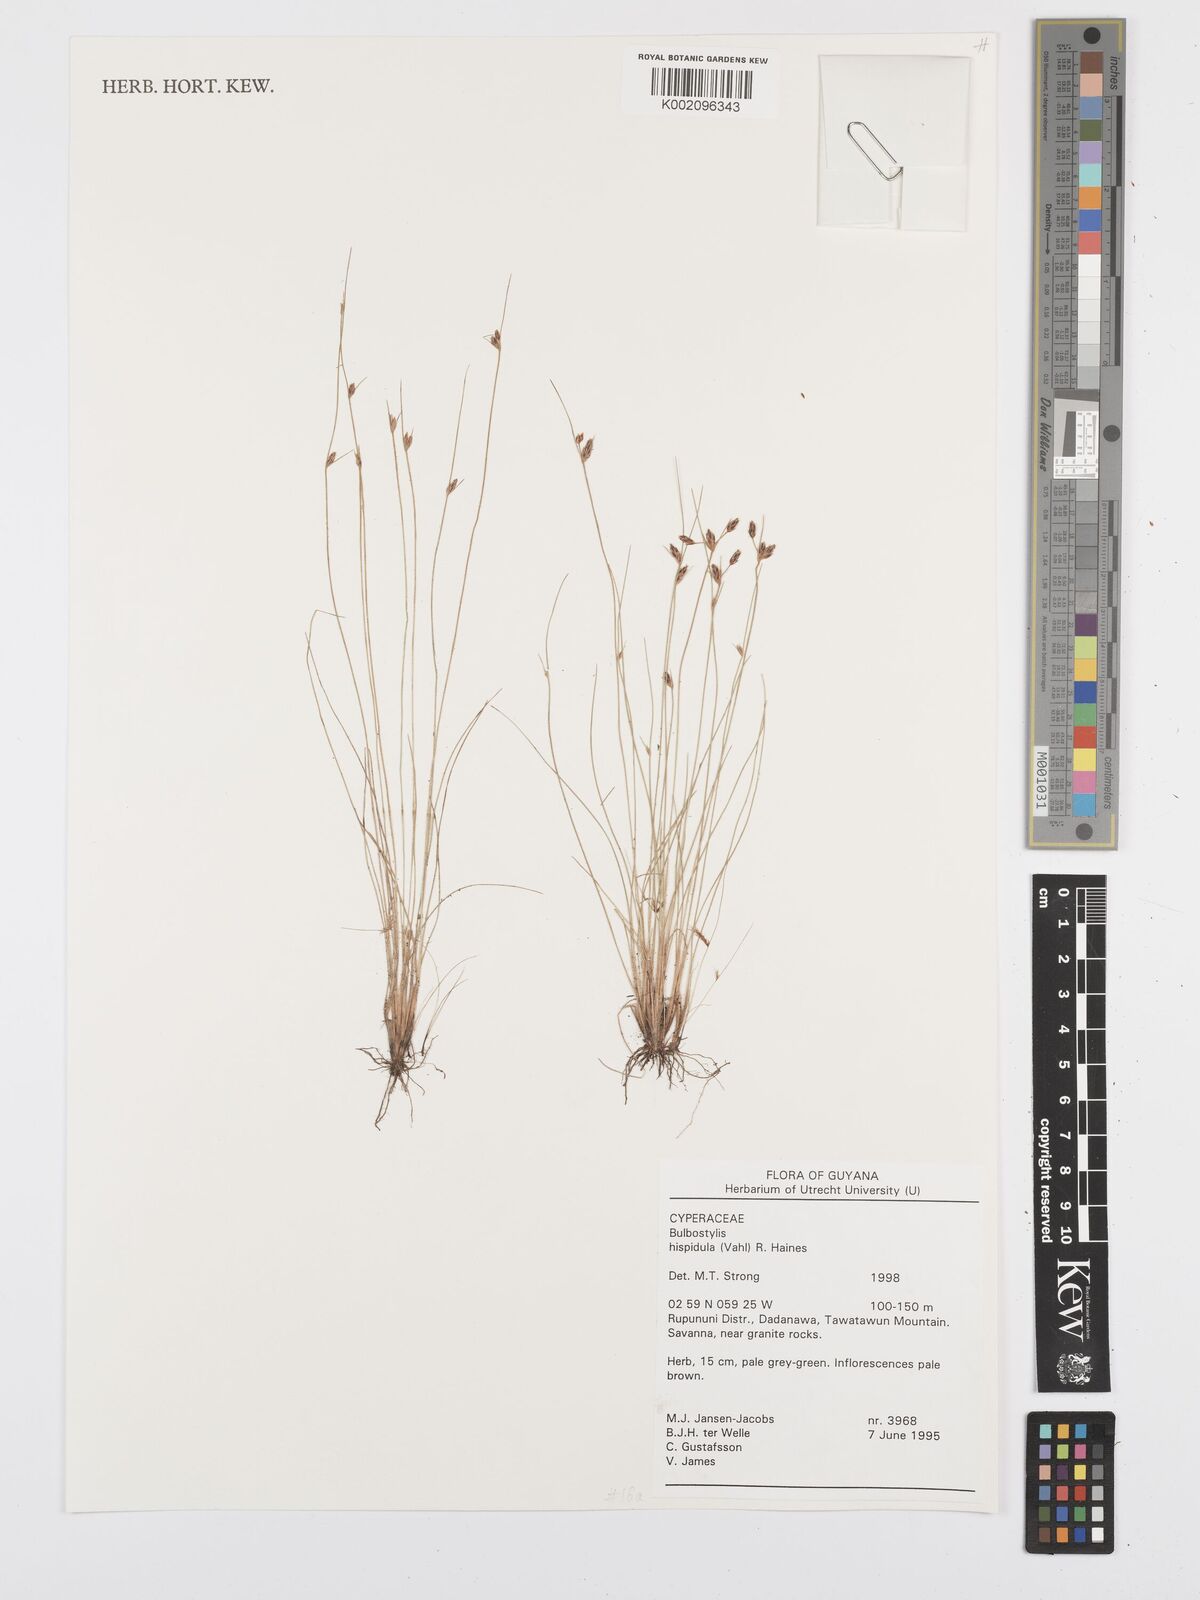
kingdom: Plantae
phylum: Tracheophyta
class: Liliopsida
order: Poales
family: Cyperaceae
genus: Bulbostylis
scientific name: Bulbostylis hispidula
